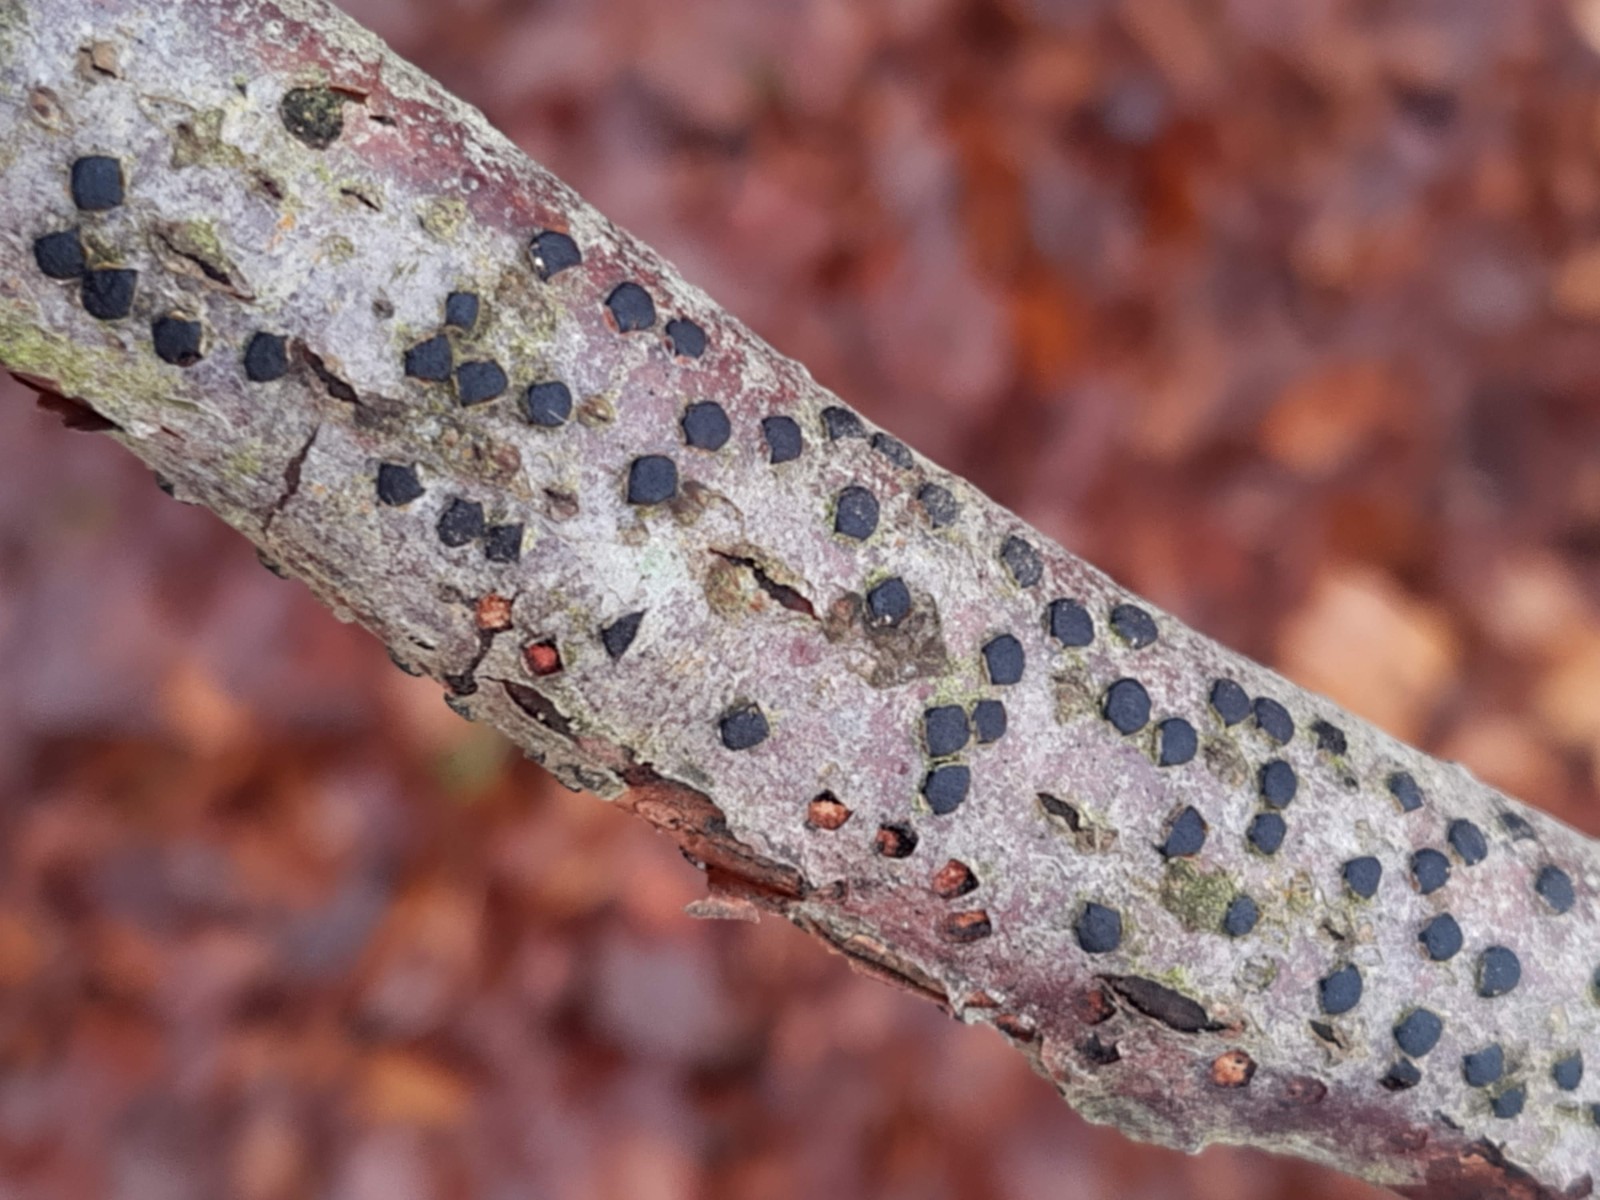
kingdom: Fungi
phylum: Ascomycota
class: Sordariomycetes
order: Xylariales
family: Diatrypaceae
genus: Diatrype
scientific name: Diatrype disciformis
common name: kant-kulskorpe
